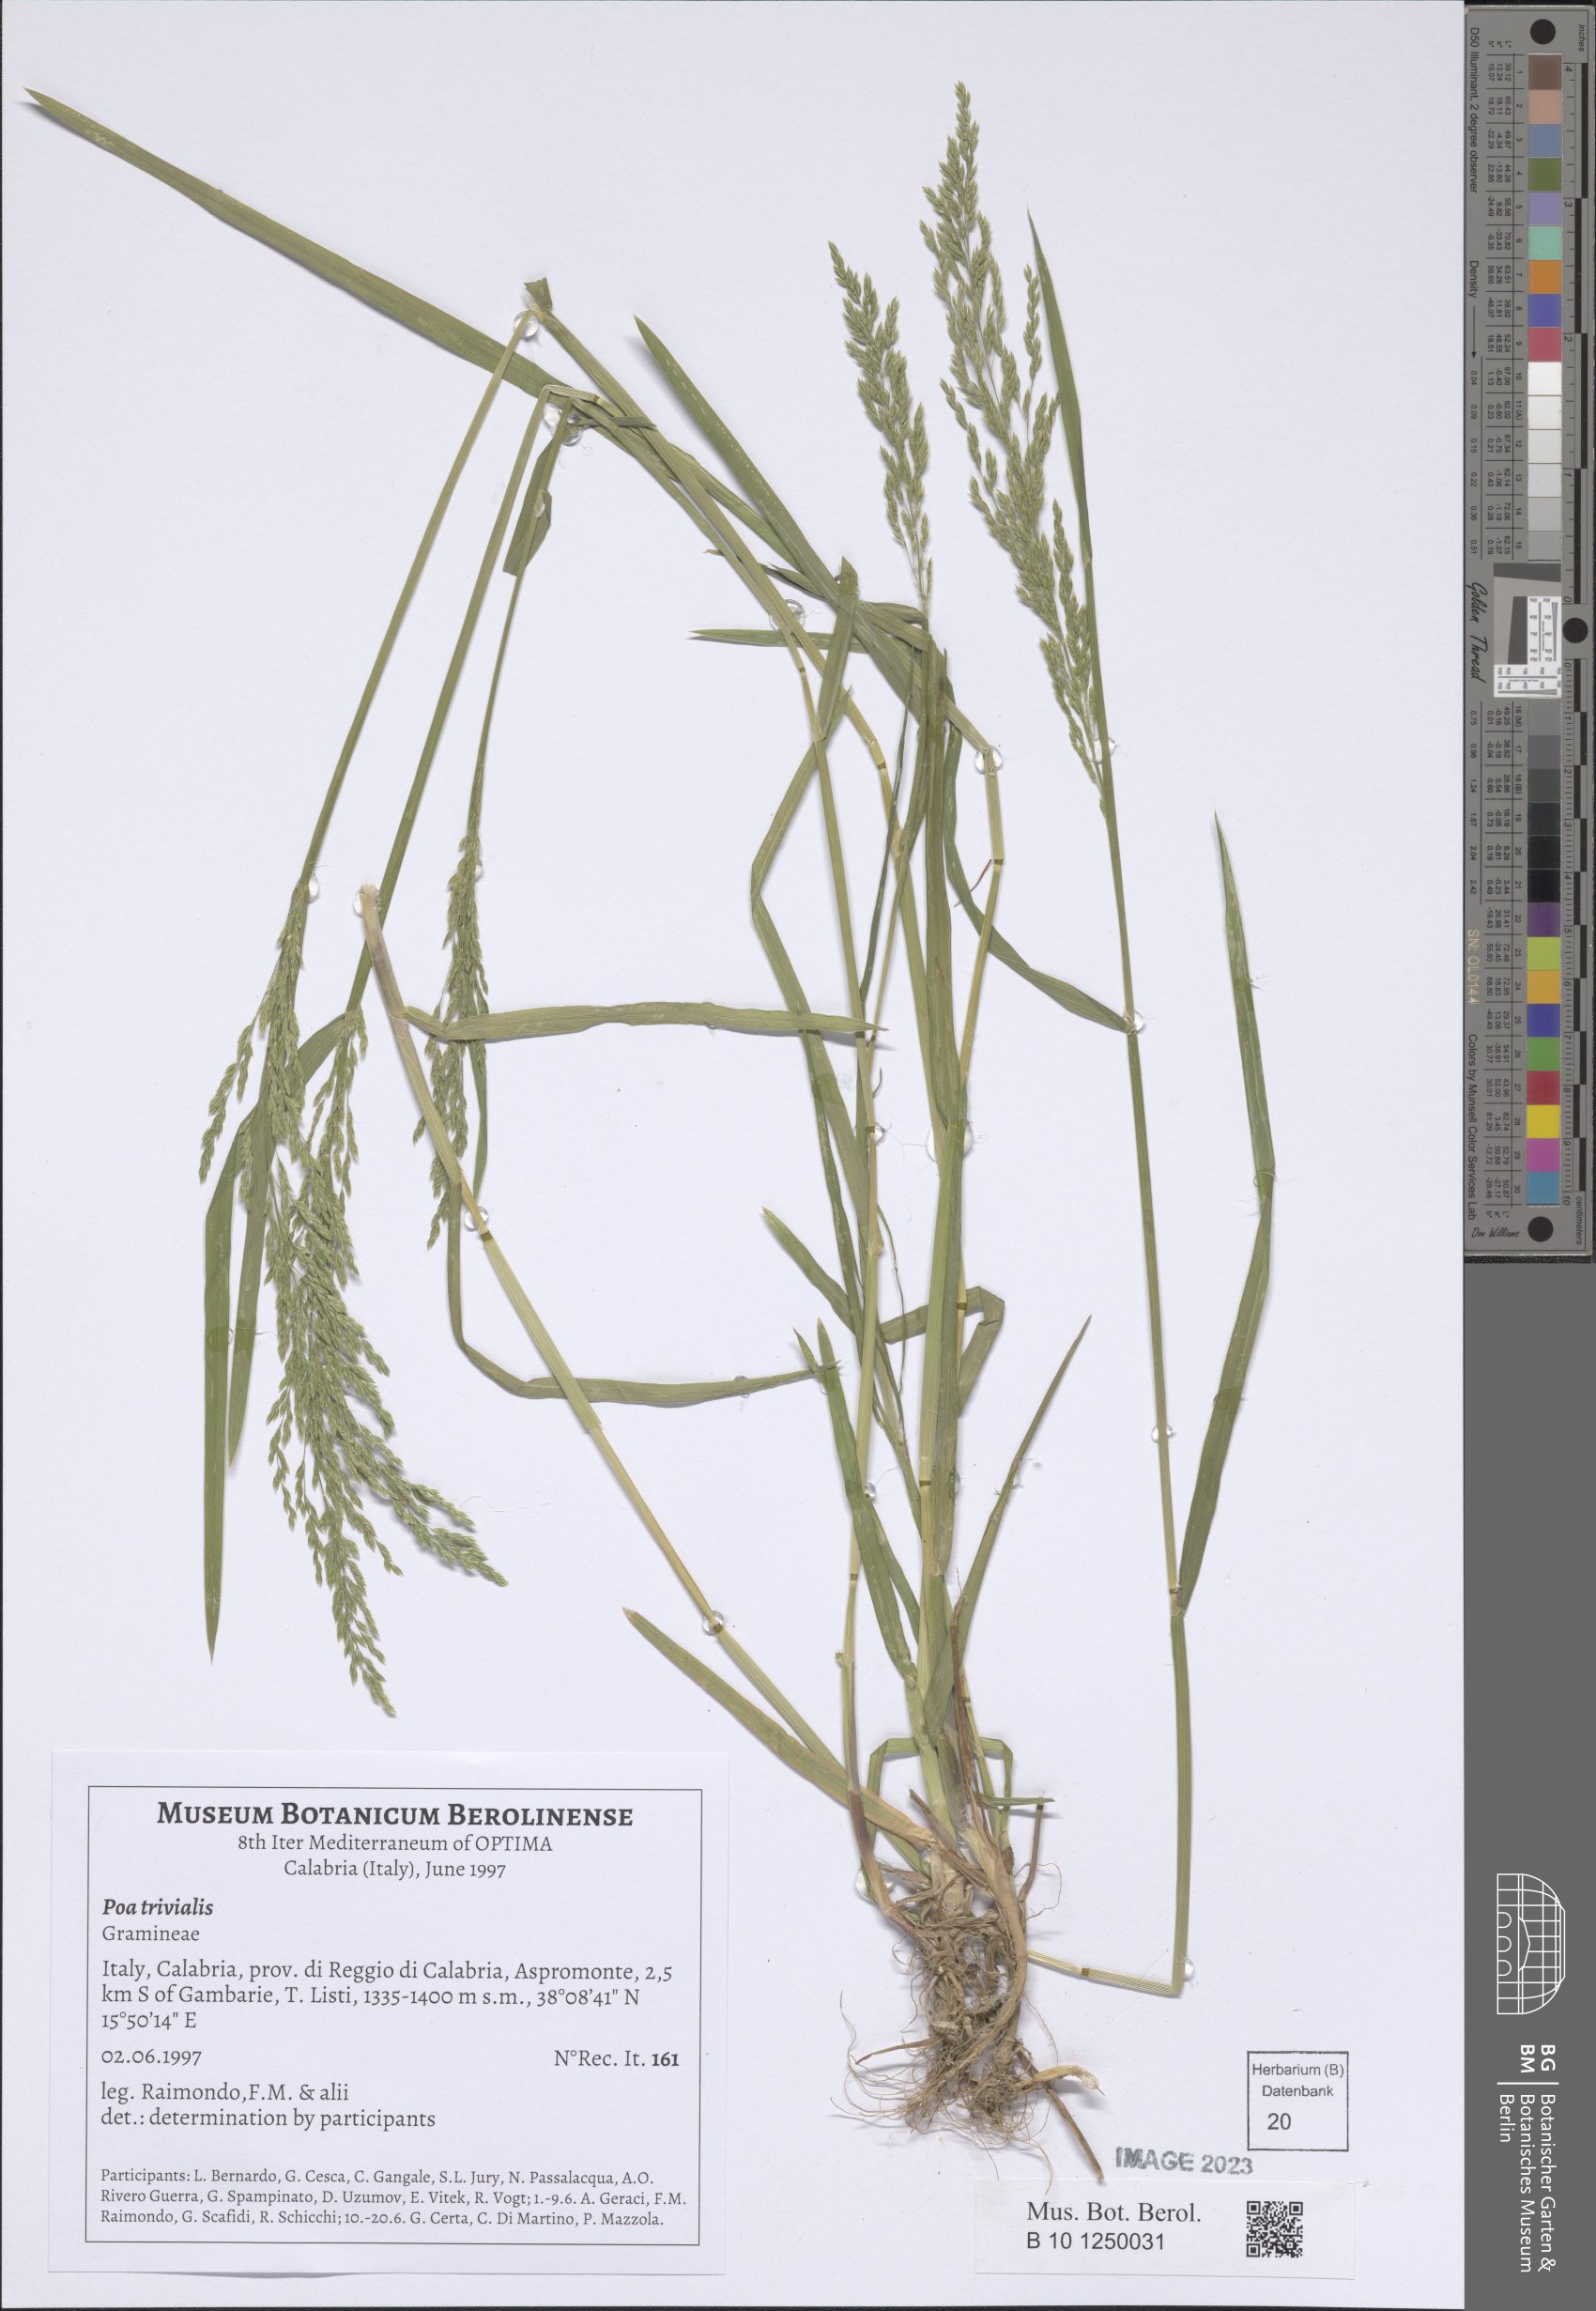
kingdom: Plantae
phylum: Tracheophyta
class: Liliopsida
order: Poales
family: Poaceae
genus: Poa
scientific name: Poa trivialis
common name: Rough bluegrass
